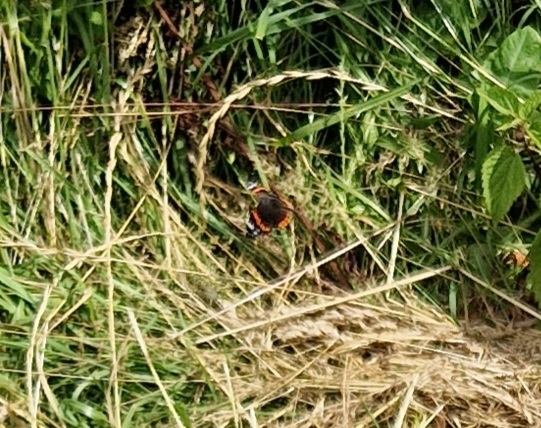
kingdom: Animalia
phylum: Arthropoda
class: Insecta
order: Lepidoptera
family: Nymphalidae
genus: Vanessa
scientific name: Vanessa atalanta
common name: Admiral
